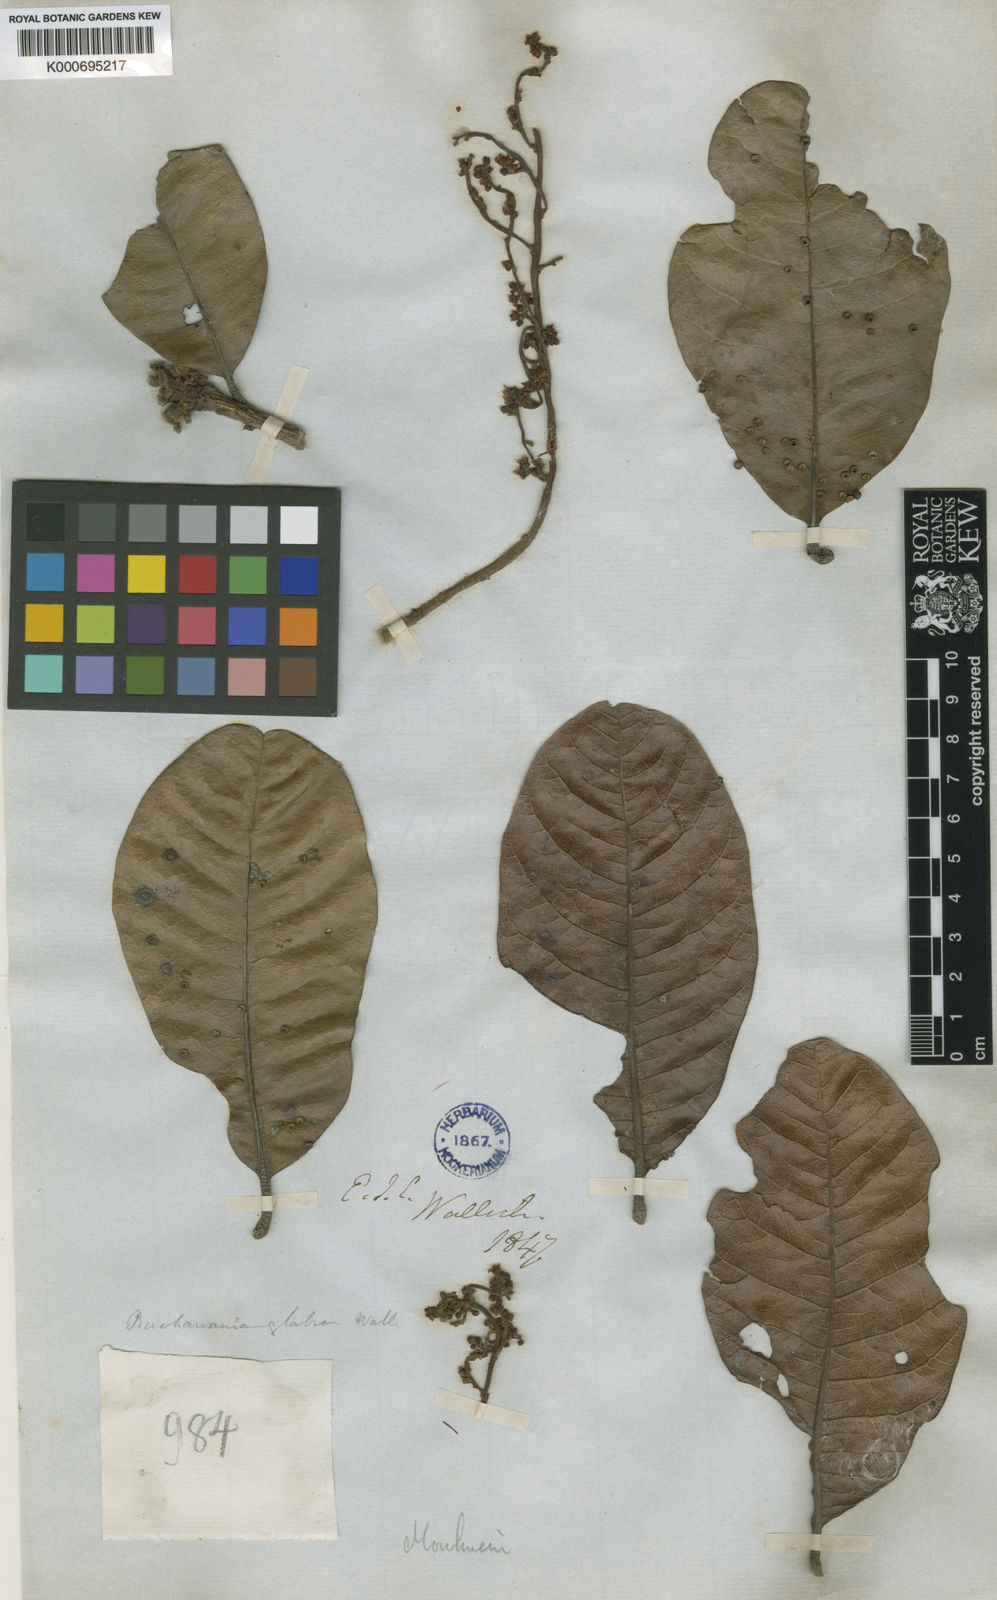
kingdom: Plantae
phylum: Tracheophyta
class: Magnoliopsida
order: Sapindales
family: Anacardiaceae
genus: Buchanania
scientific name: Buchanania
